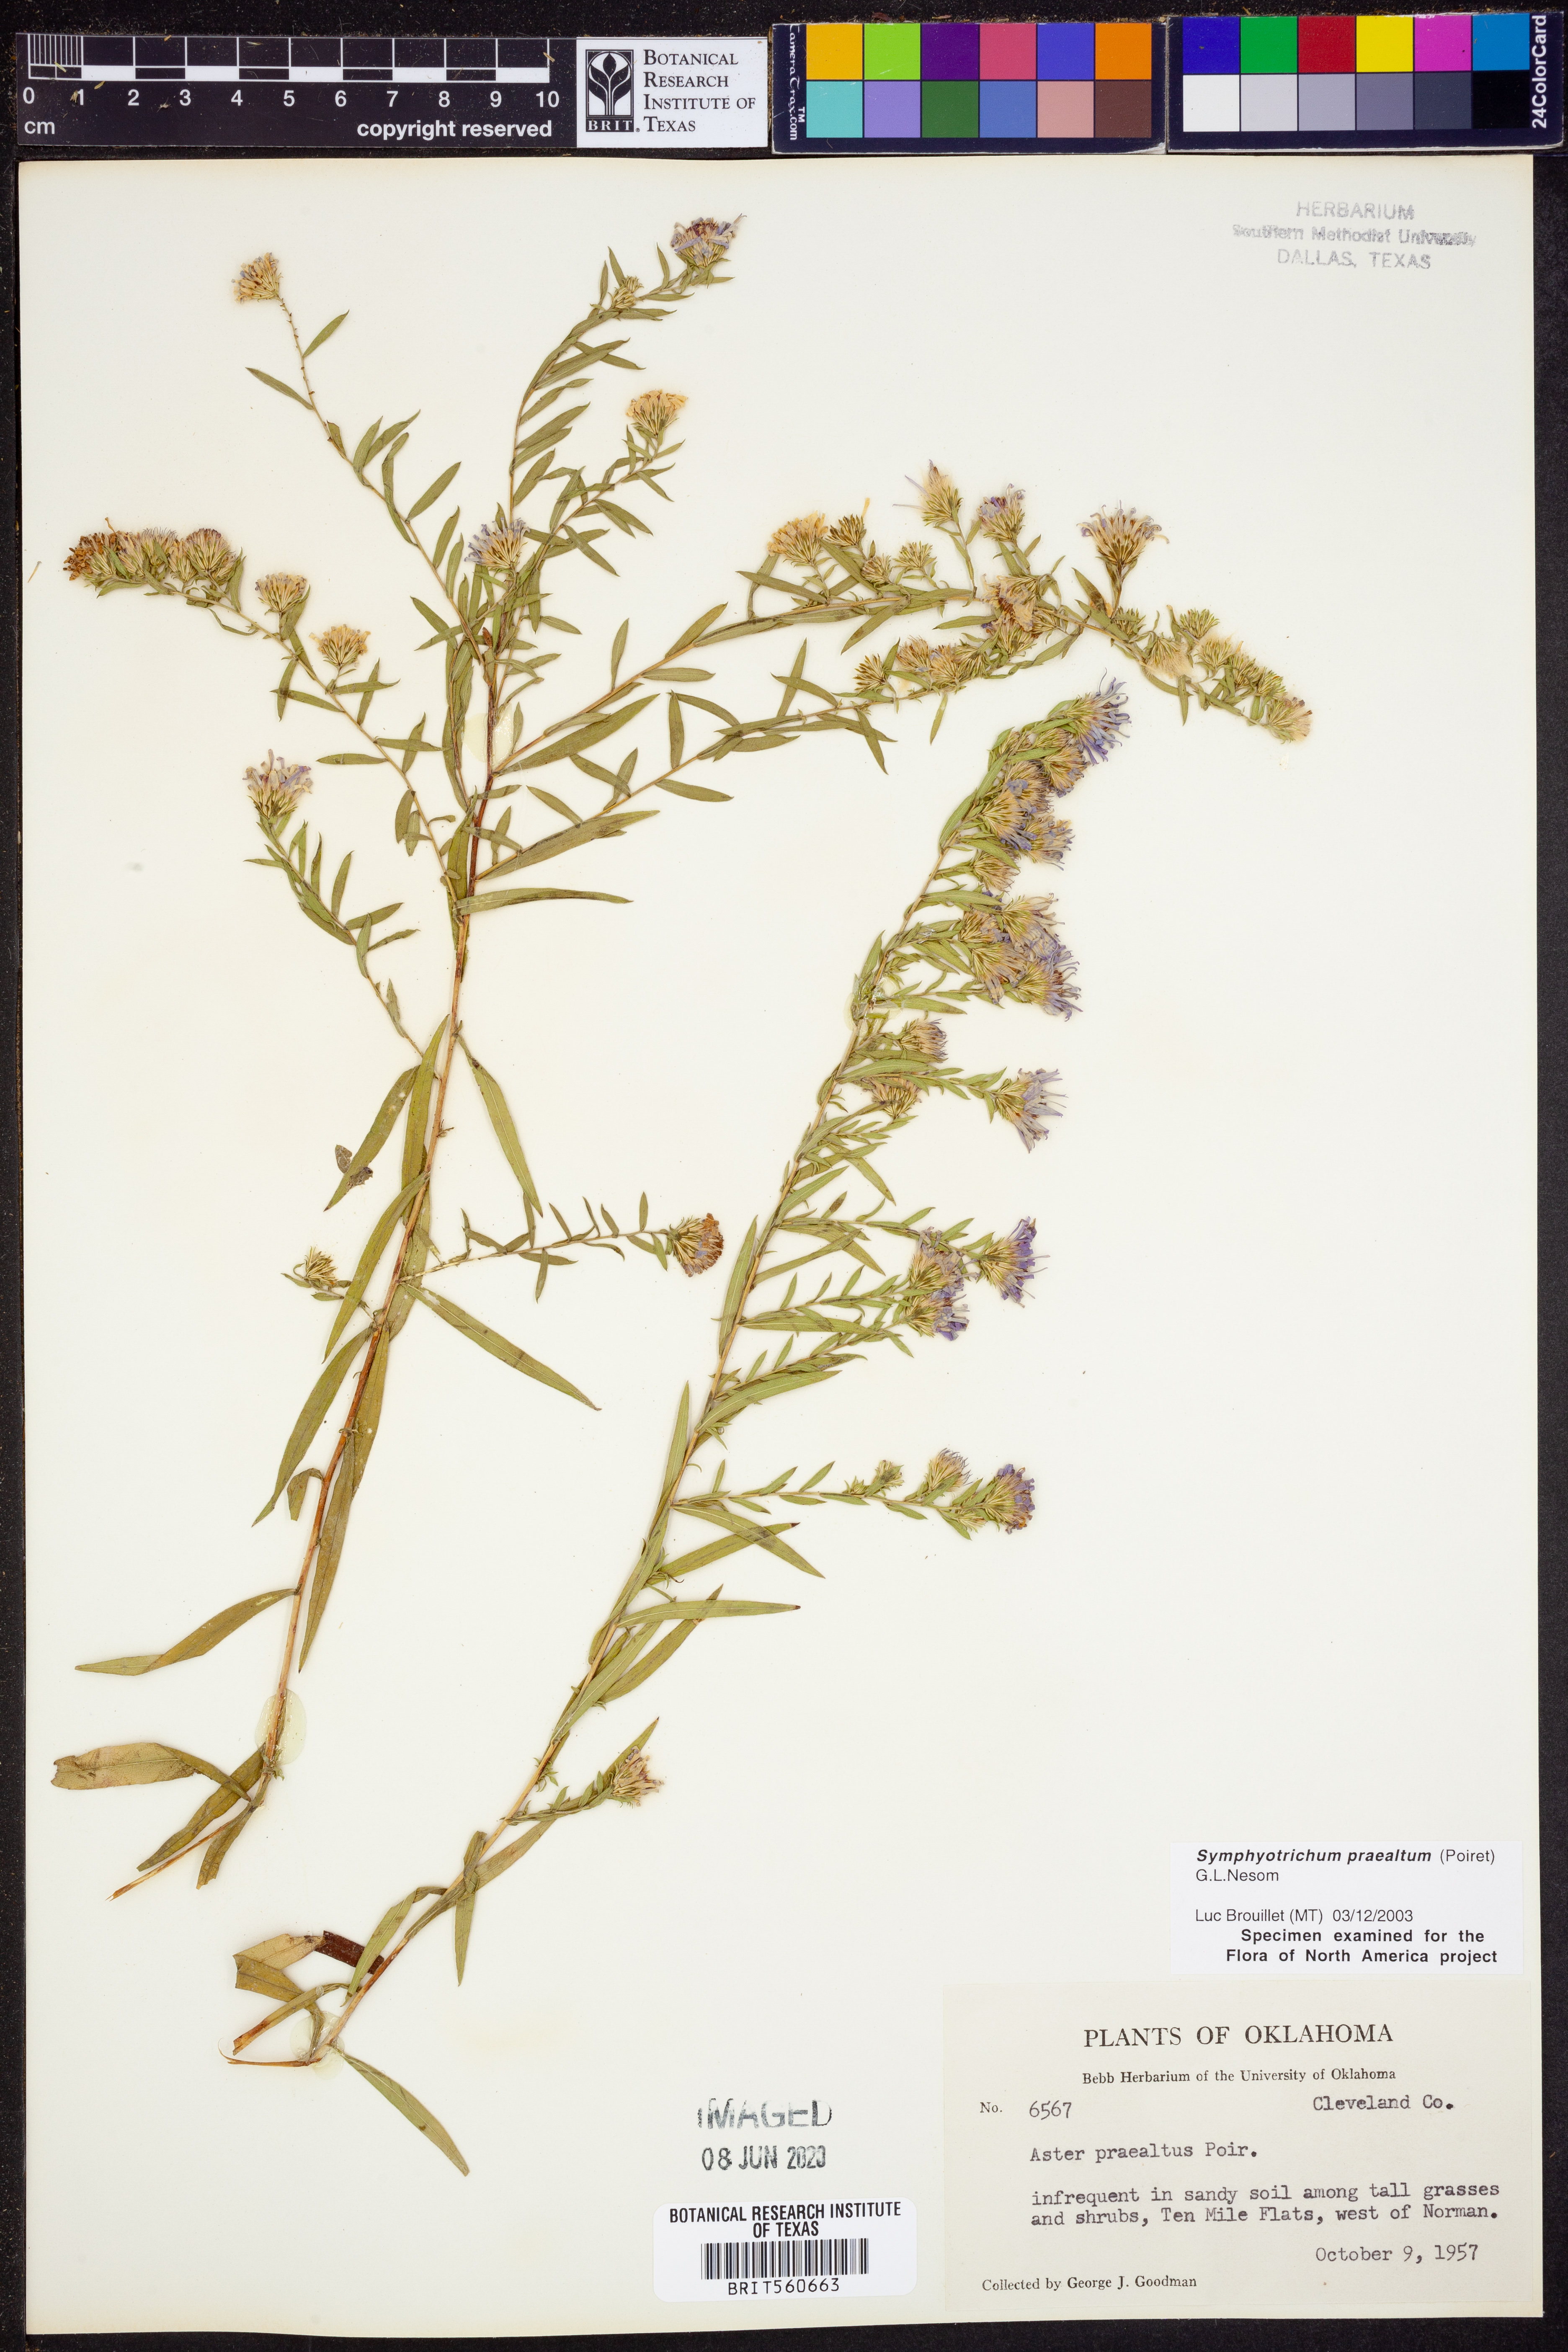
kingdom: Plantae
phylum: Tracheophyta
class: Magnoliopsida
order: Asterales
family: Asteraceae
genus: Symphyotrichum
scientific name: Symphyotrichum praealtum
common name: Willow aster
